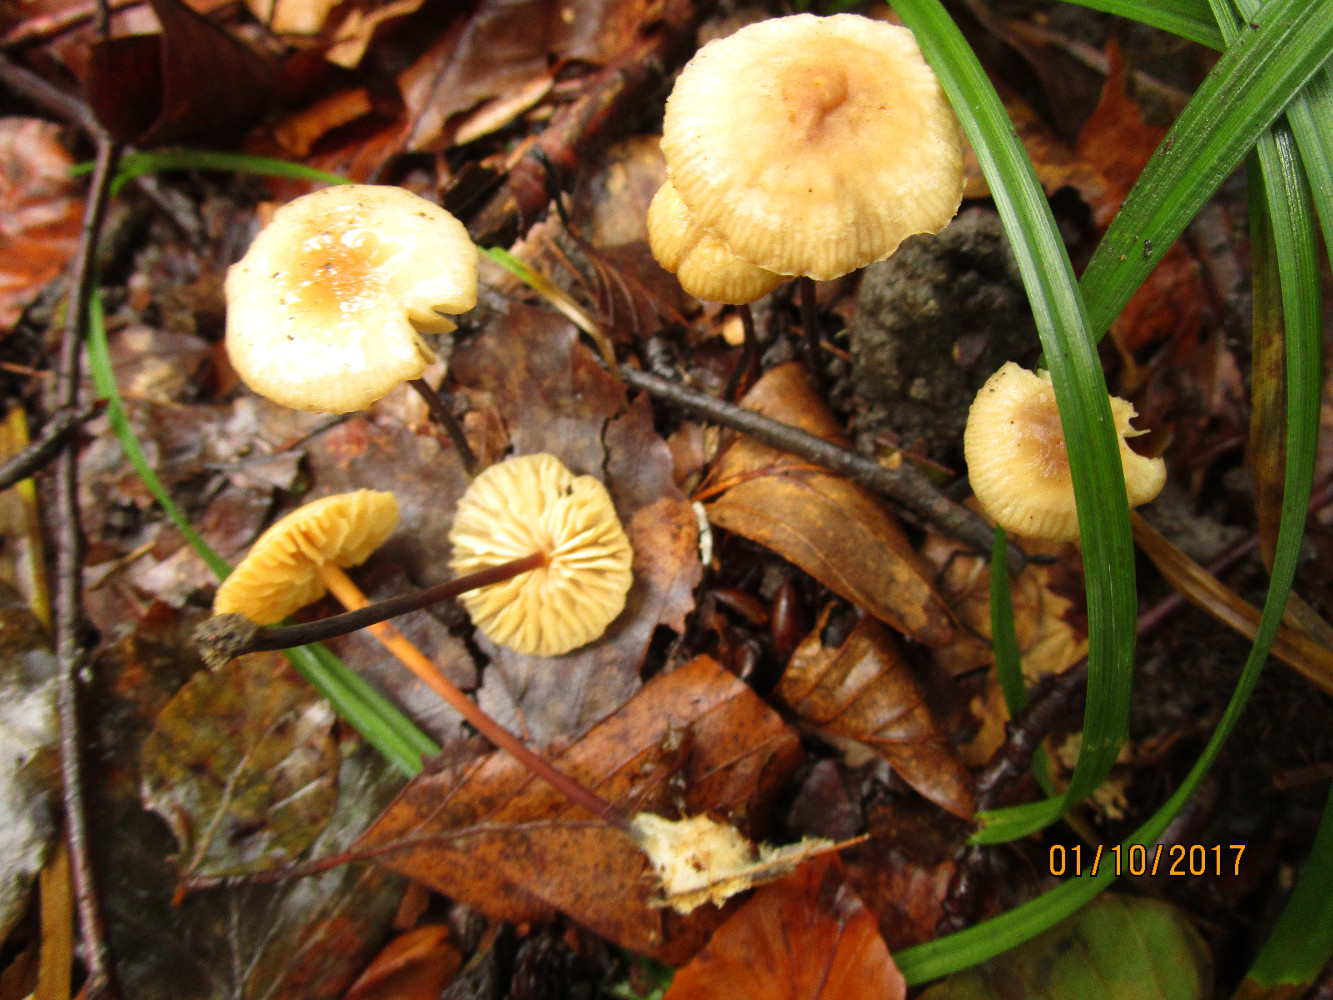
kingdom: Fungi
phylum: Basidiomycota
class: Agaricomycetes
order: Agaricales
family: Marasmiaceae
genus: Marasmius
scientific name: Marasmius cohaerens
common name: hornstokket bruskhat
